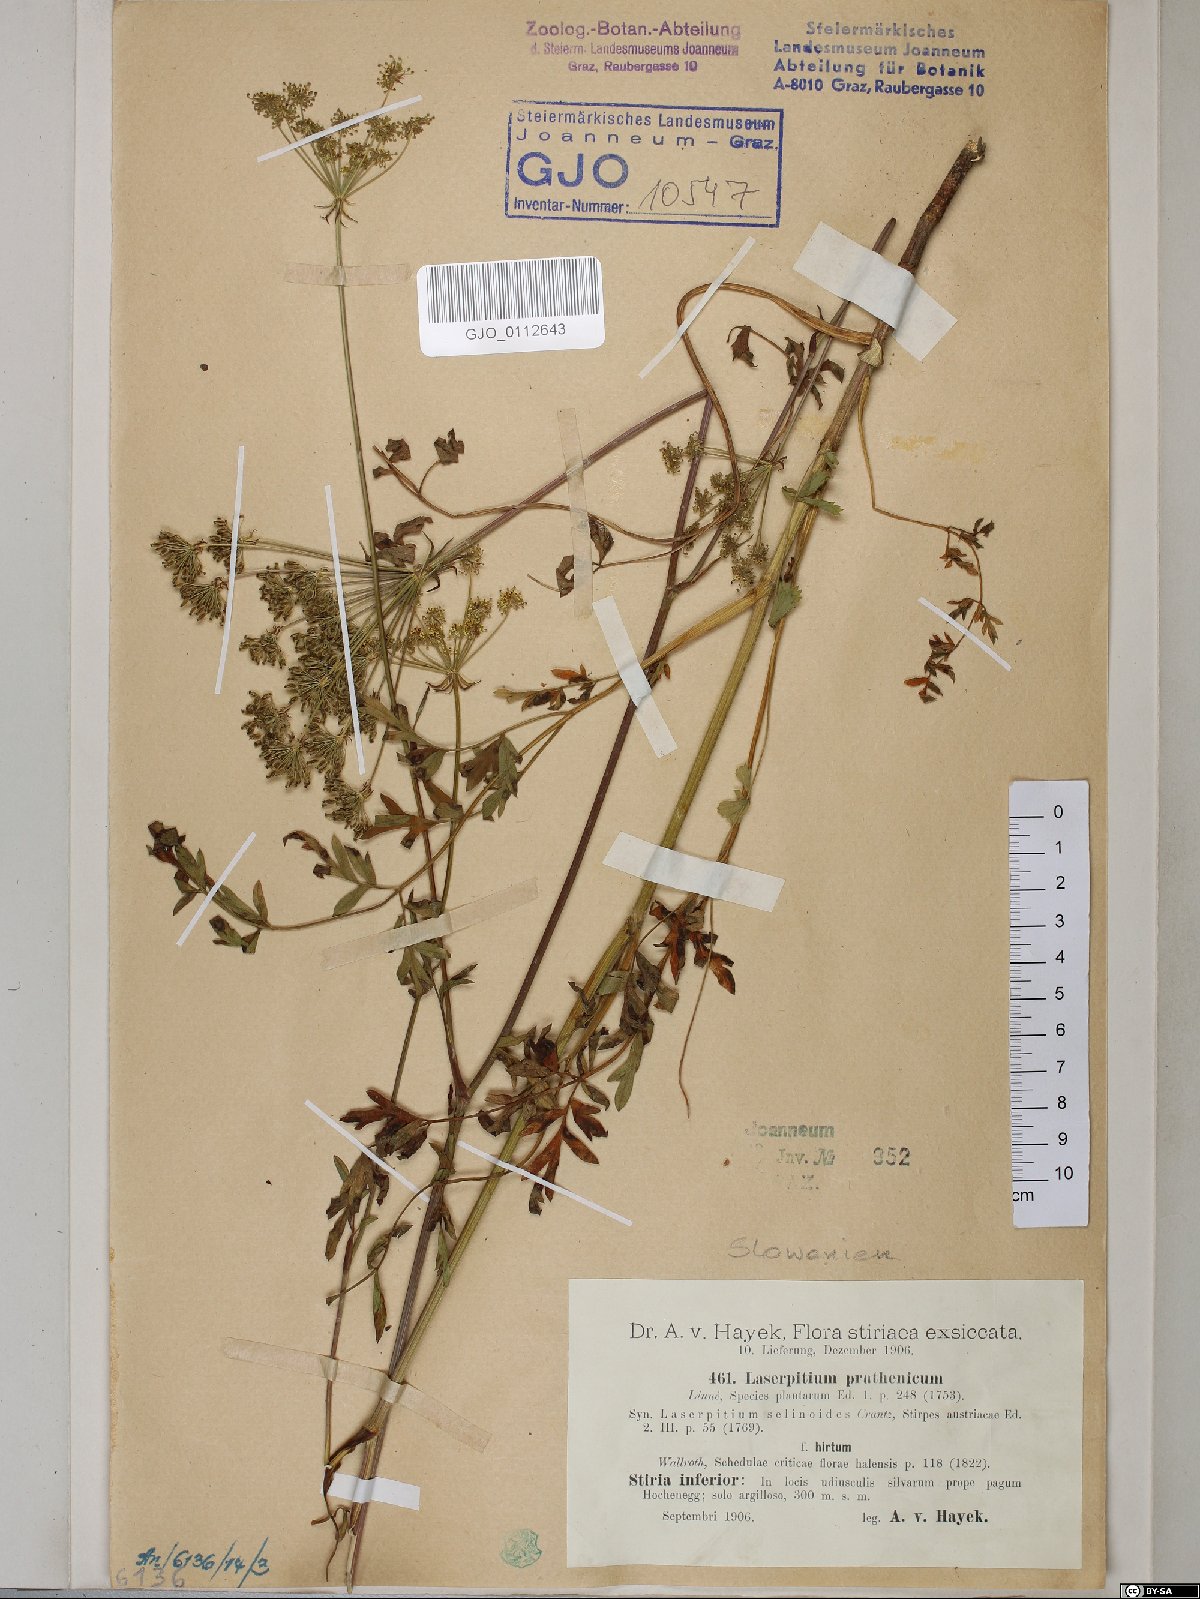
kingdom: Plantae
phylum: Tracheophyta
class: Magnoliopsida
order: Apiales
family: Apiaceae
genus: Silphiodaucus
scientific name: Silphiodaucus prutenicus
